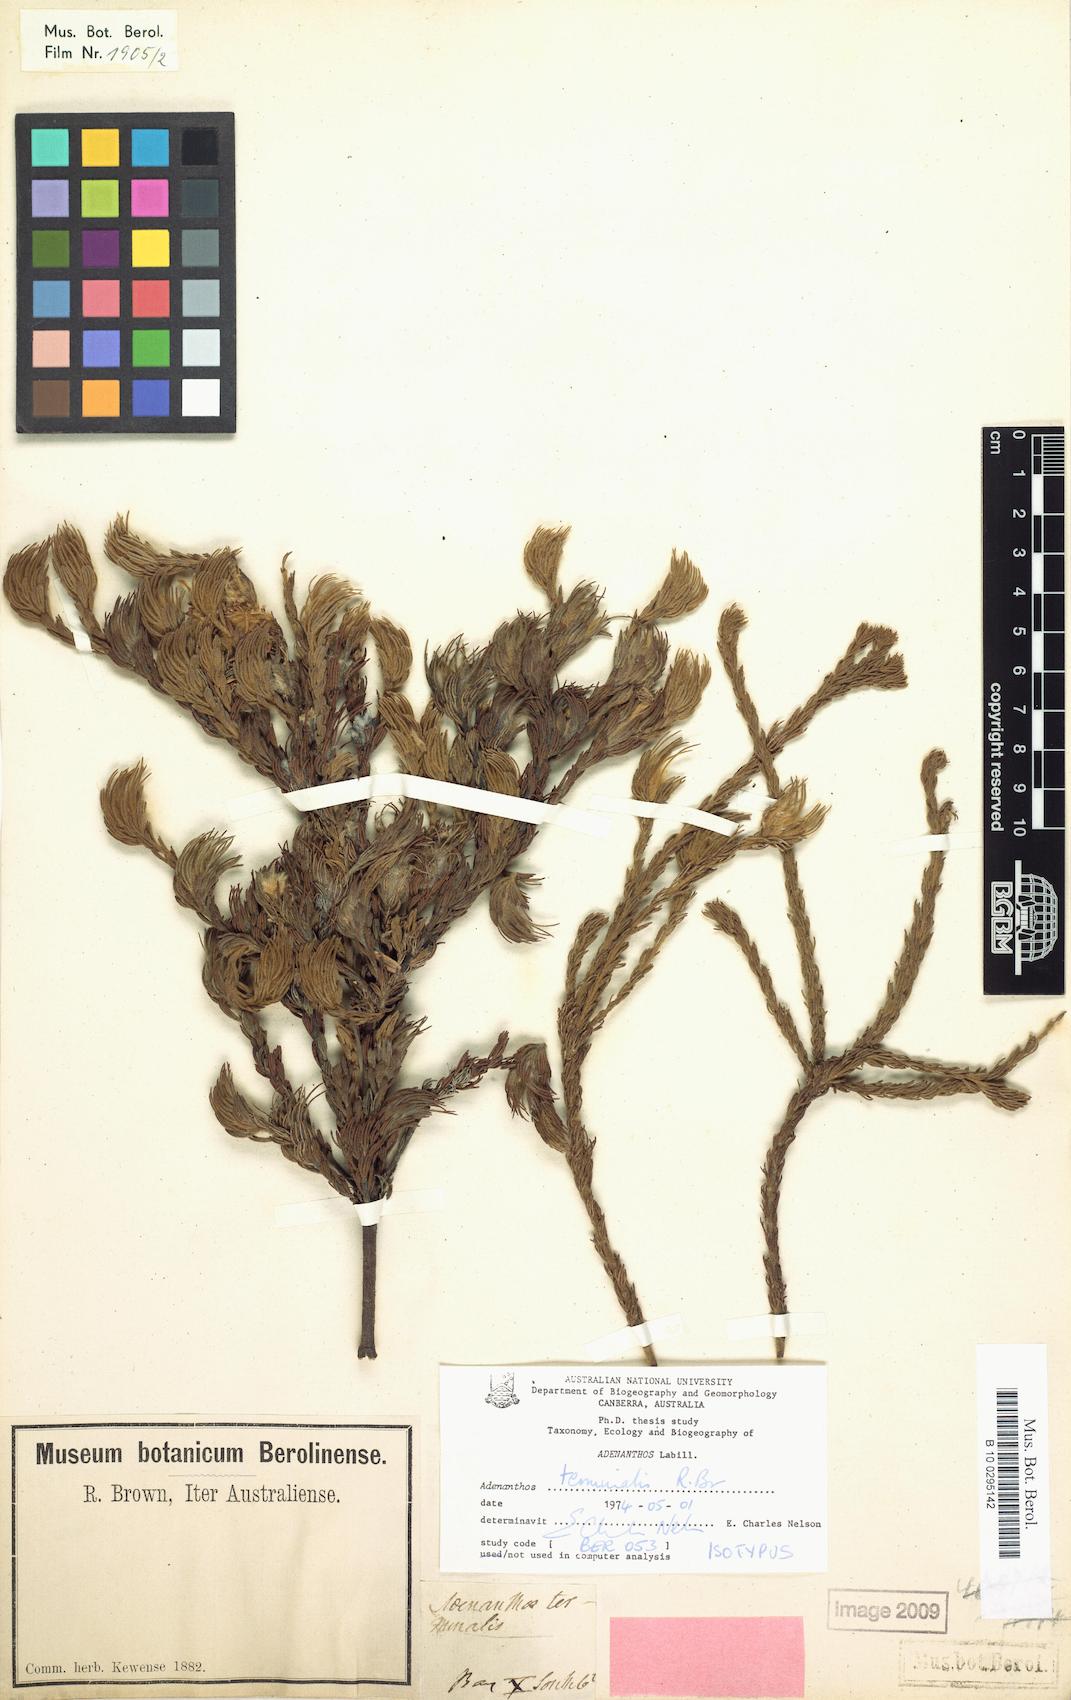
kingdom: Plantae
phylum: Tracheophyta
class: Magnoliopsida
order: Proteales
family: Proteaceae
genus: Adenanthos
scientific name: Adenanthos terminalis
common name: Yellow gland-flower
